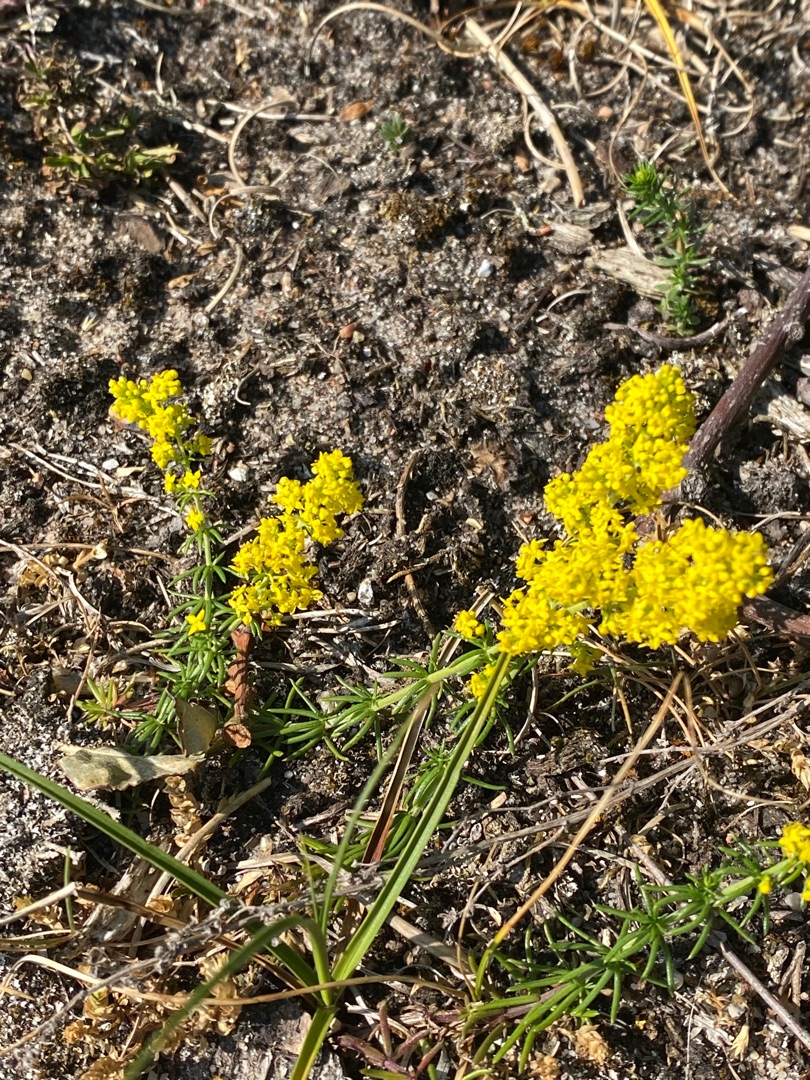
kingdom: Plantae
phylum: Tracheophyta
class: Magnoliopsida
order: Gentianales
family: Rubiaceae
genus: Galium
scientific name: Galium verum
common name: Gul snerre
